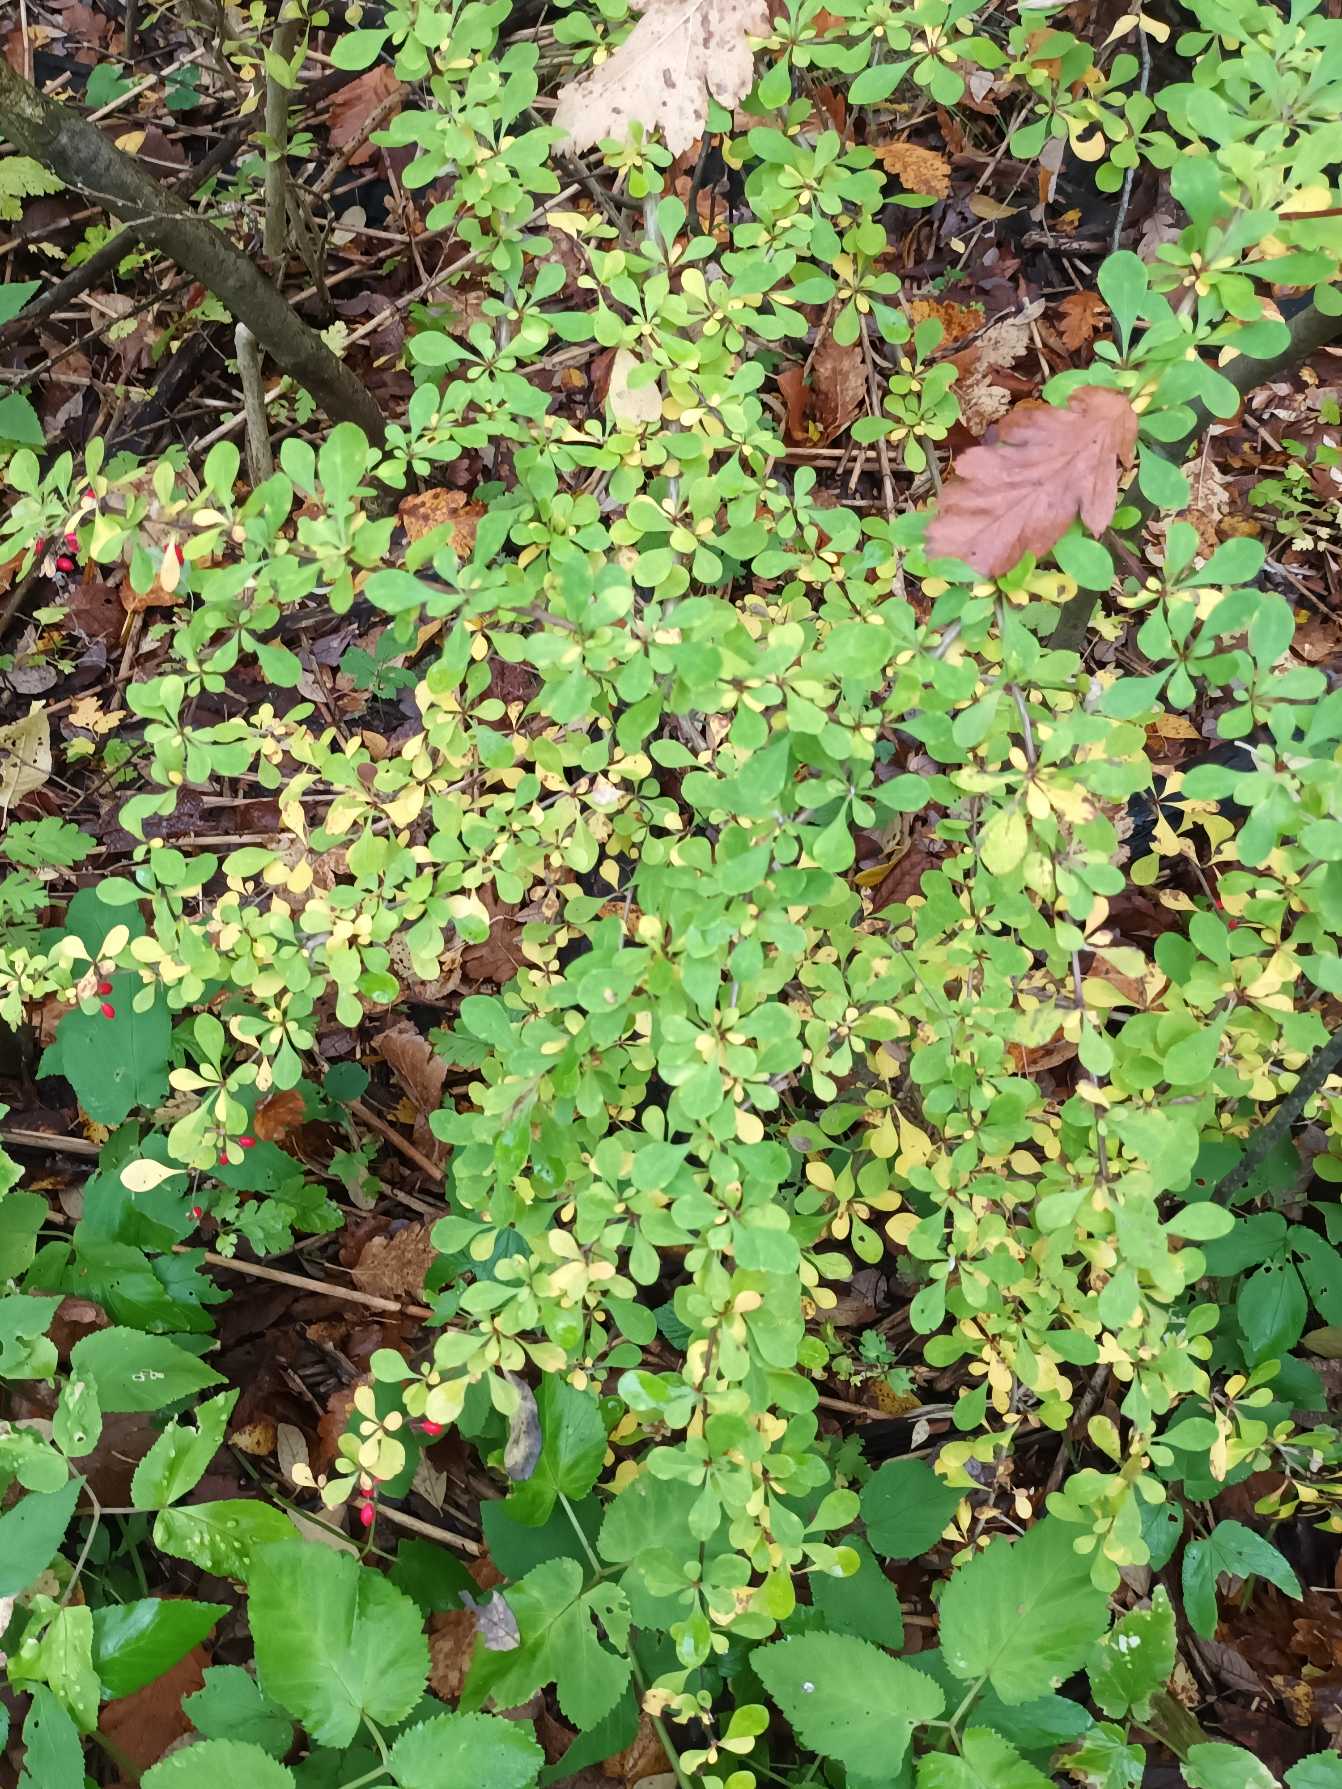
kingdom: Plantae
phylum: Tracheophyta
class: Magnoliopsida
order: Ranunculales
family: Berberidaceae
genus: Berberis
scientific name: Berberis thunbergii
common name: Hæk-berberis
